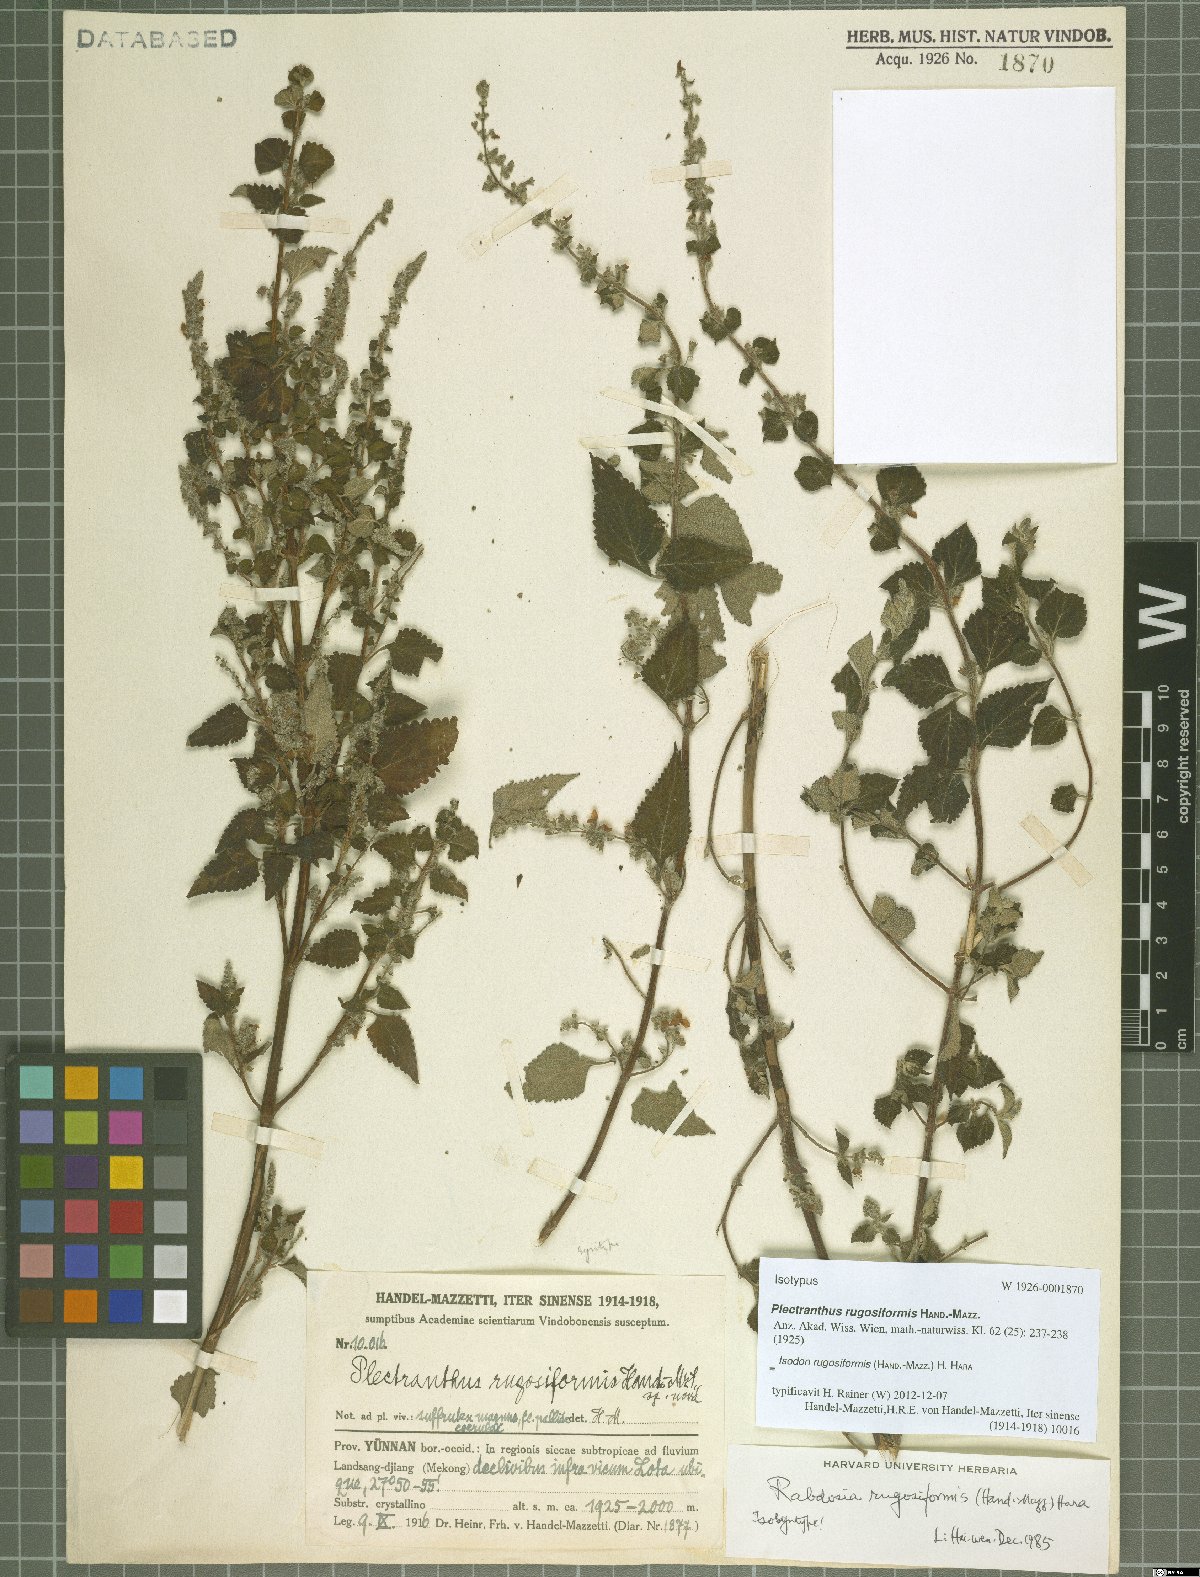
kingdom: Plantae
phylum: Tracheophyta
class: Magnoliopsida
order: Lamiales
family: Lamiaceae
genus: Isodon
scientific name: Isodon rugosiformis
